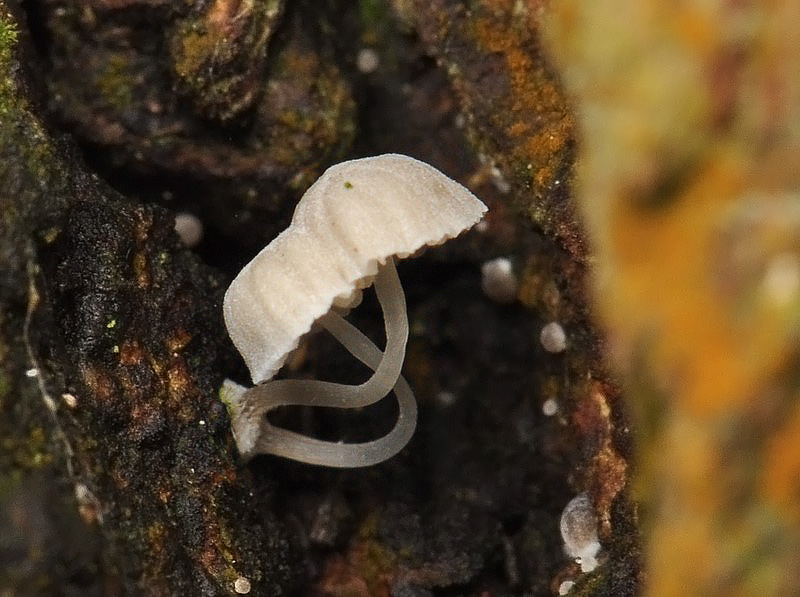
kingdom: Fungi
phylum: Basidiomycota
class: Agaricomycetes
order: Agaricales
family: Mycenaceae
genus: Mycena
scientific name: Mycena clavularis
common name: dunskivet huesvamp
